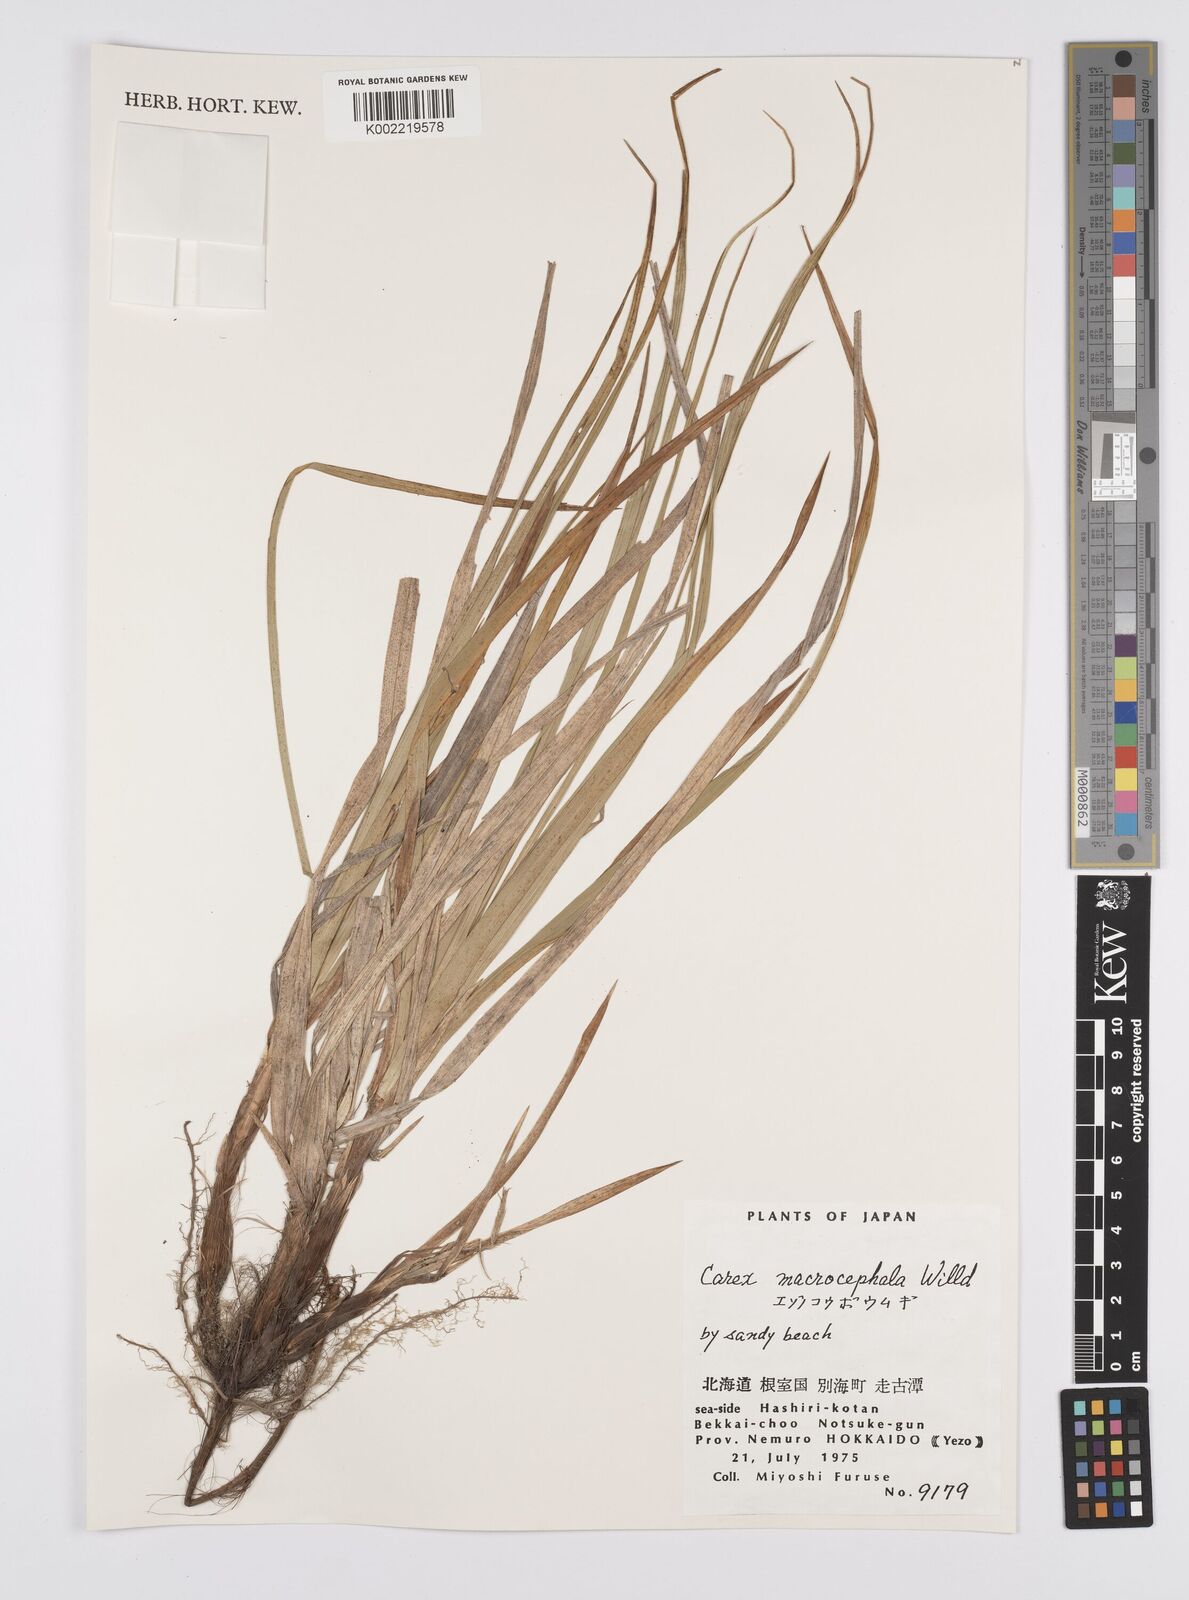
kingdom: Plantae
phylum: Tracheophyta
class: Liliopsida
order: Poales
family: Cyperaceae
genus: Carex
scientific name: Carex macrocephala
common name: Large-head sedge
